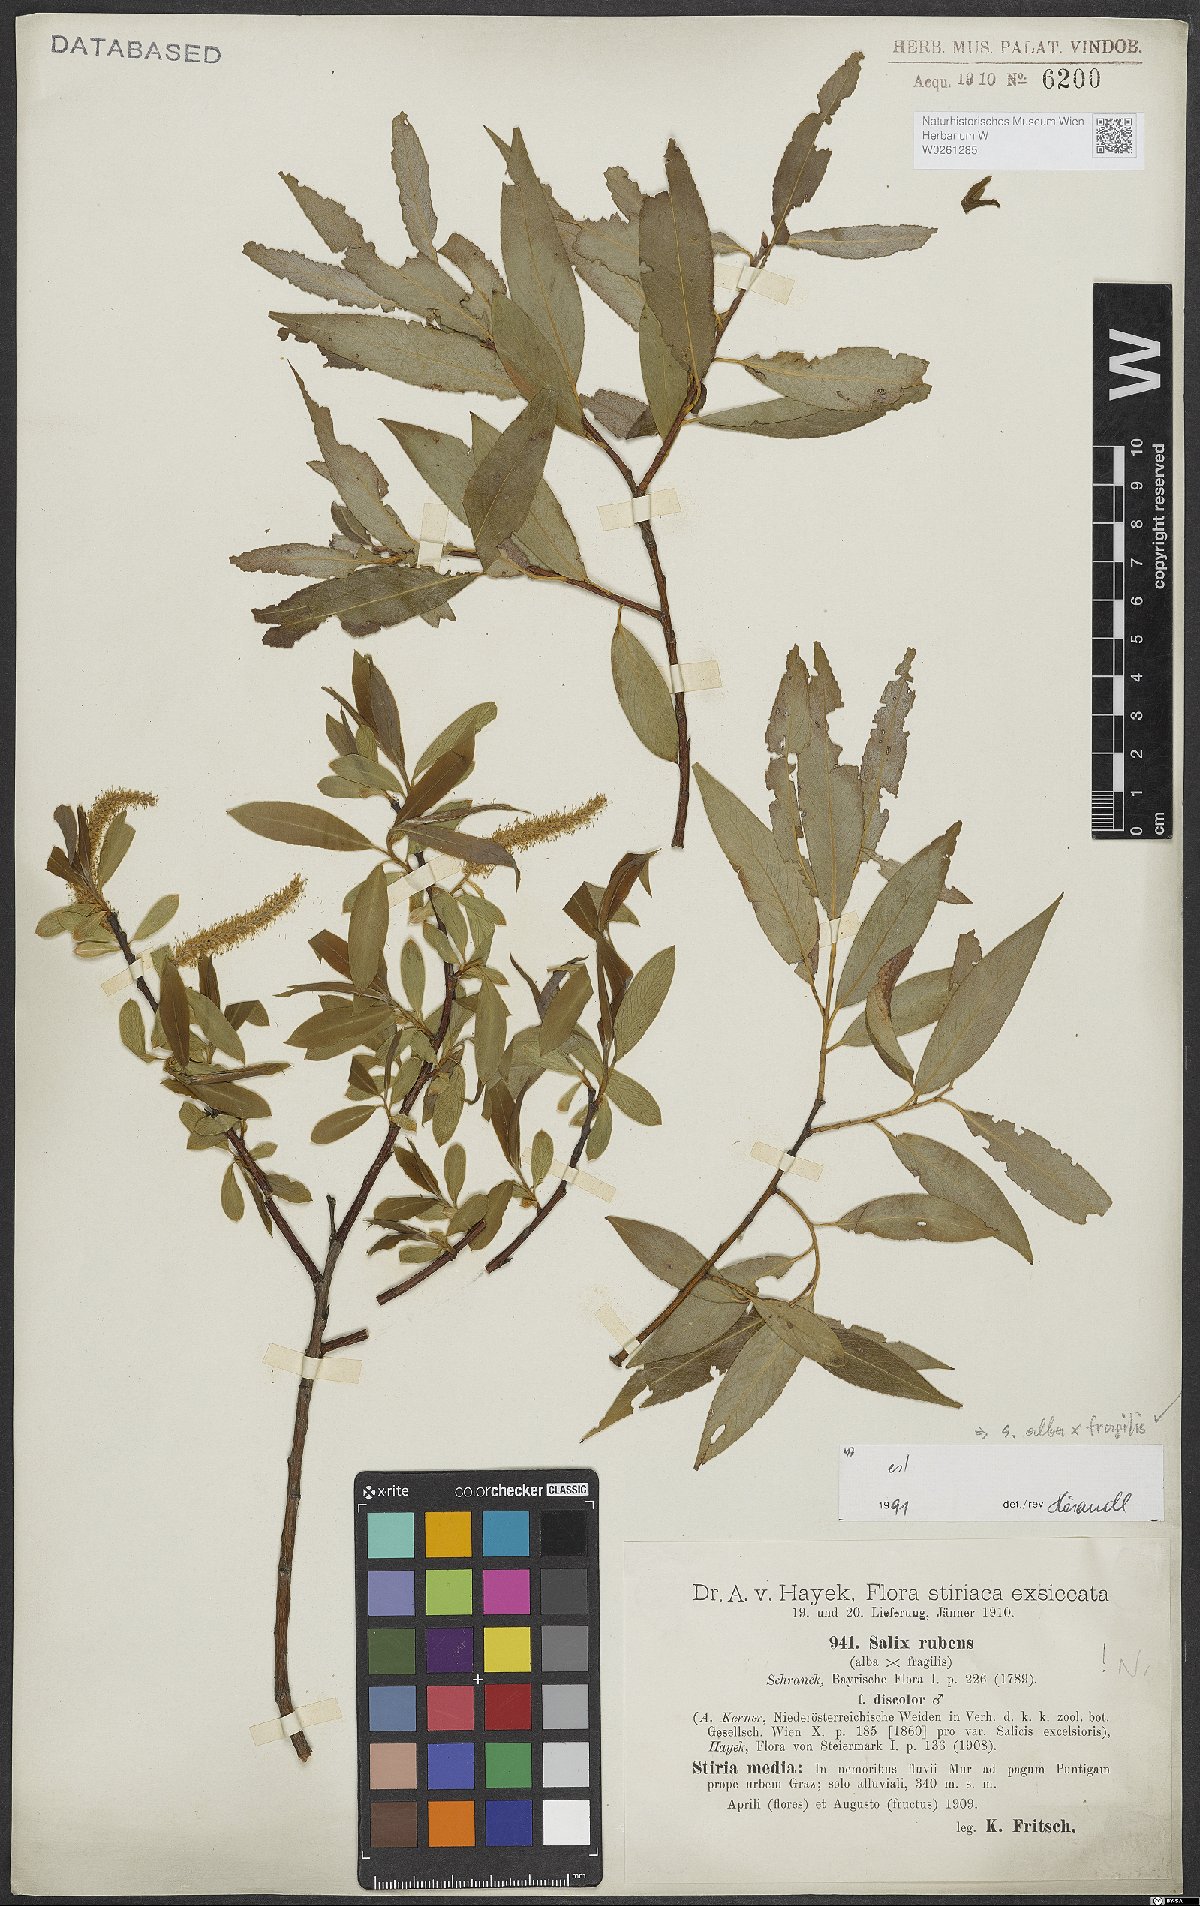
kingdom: Plantae
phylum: Tracheophyta
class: Magnoliopsida
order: Malpighiales
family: Salicaceae
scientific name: Salicaceae
